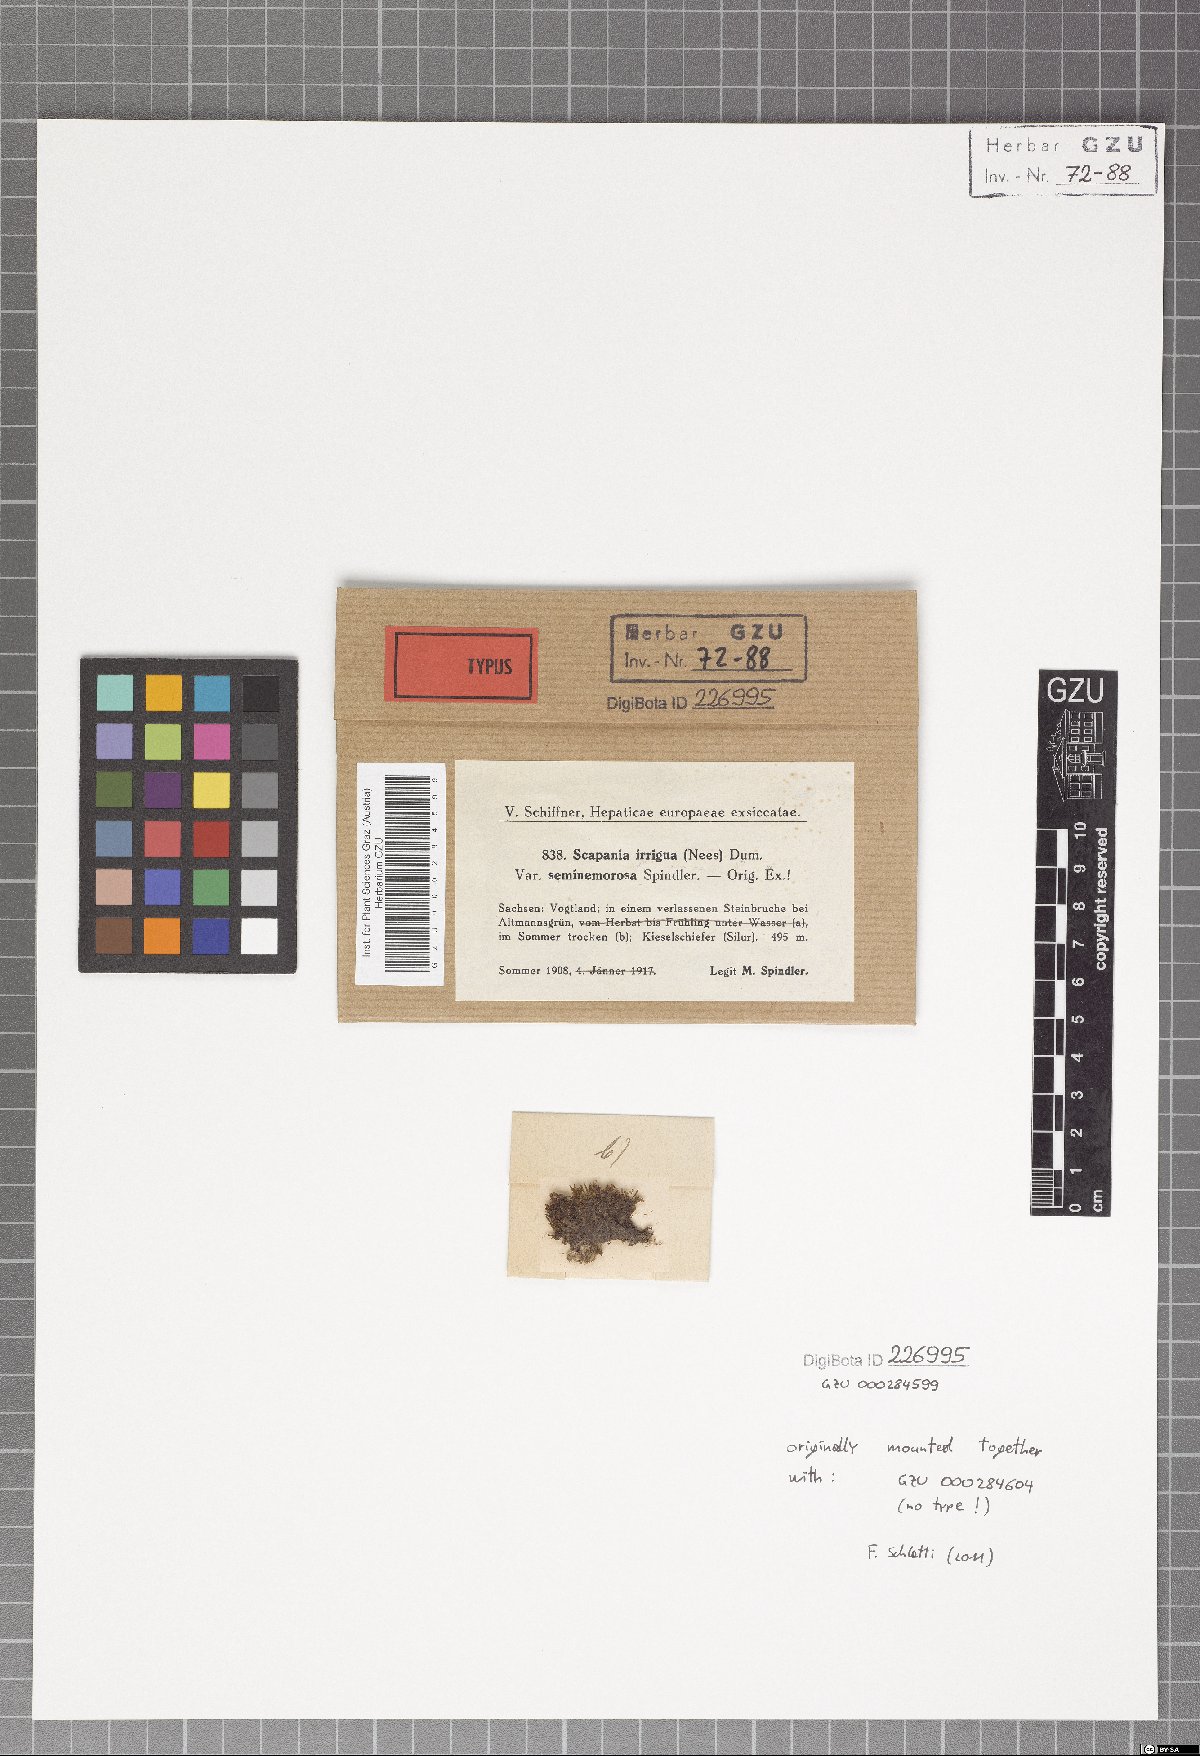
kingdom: Plantae
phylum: Marchantiophyta
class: Jungermanniopsida
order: Jungermanniales
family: Scapaniaceae
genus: Scapania
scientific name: Scapania irrigua
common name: Heath earwort
